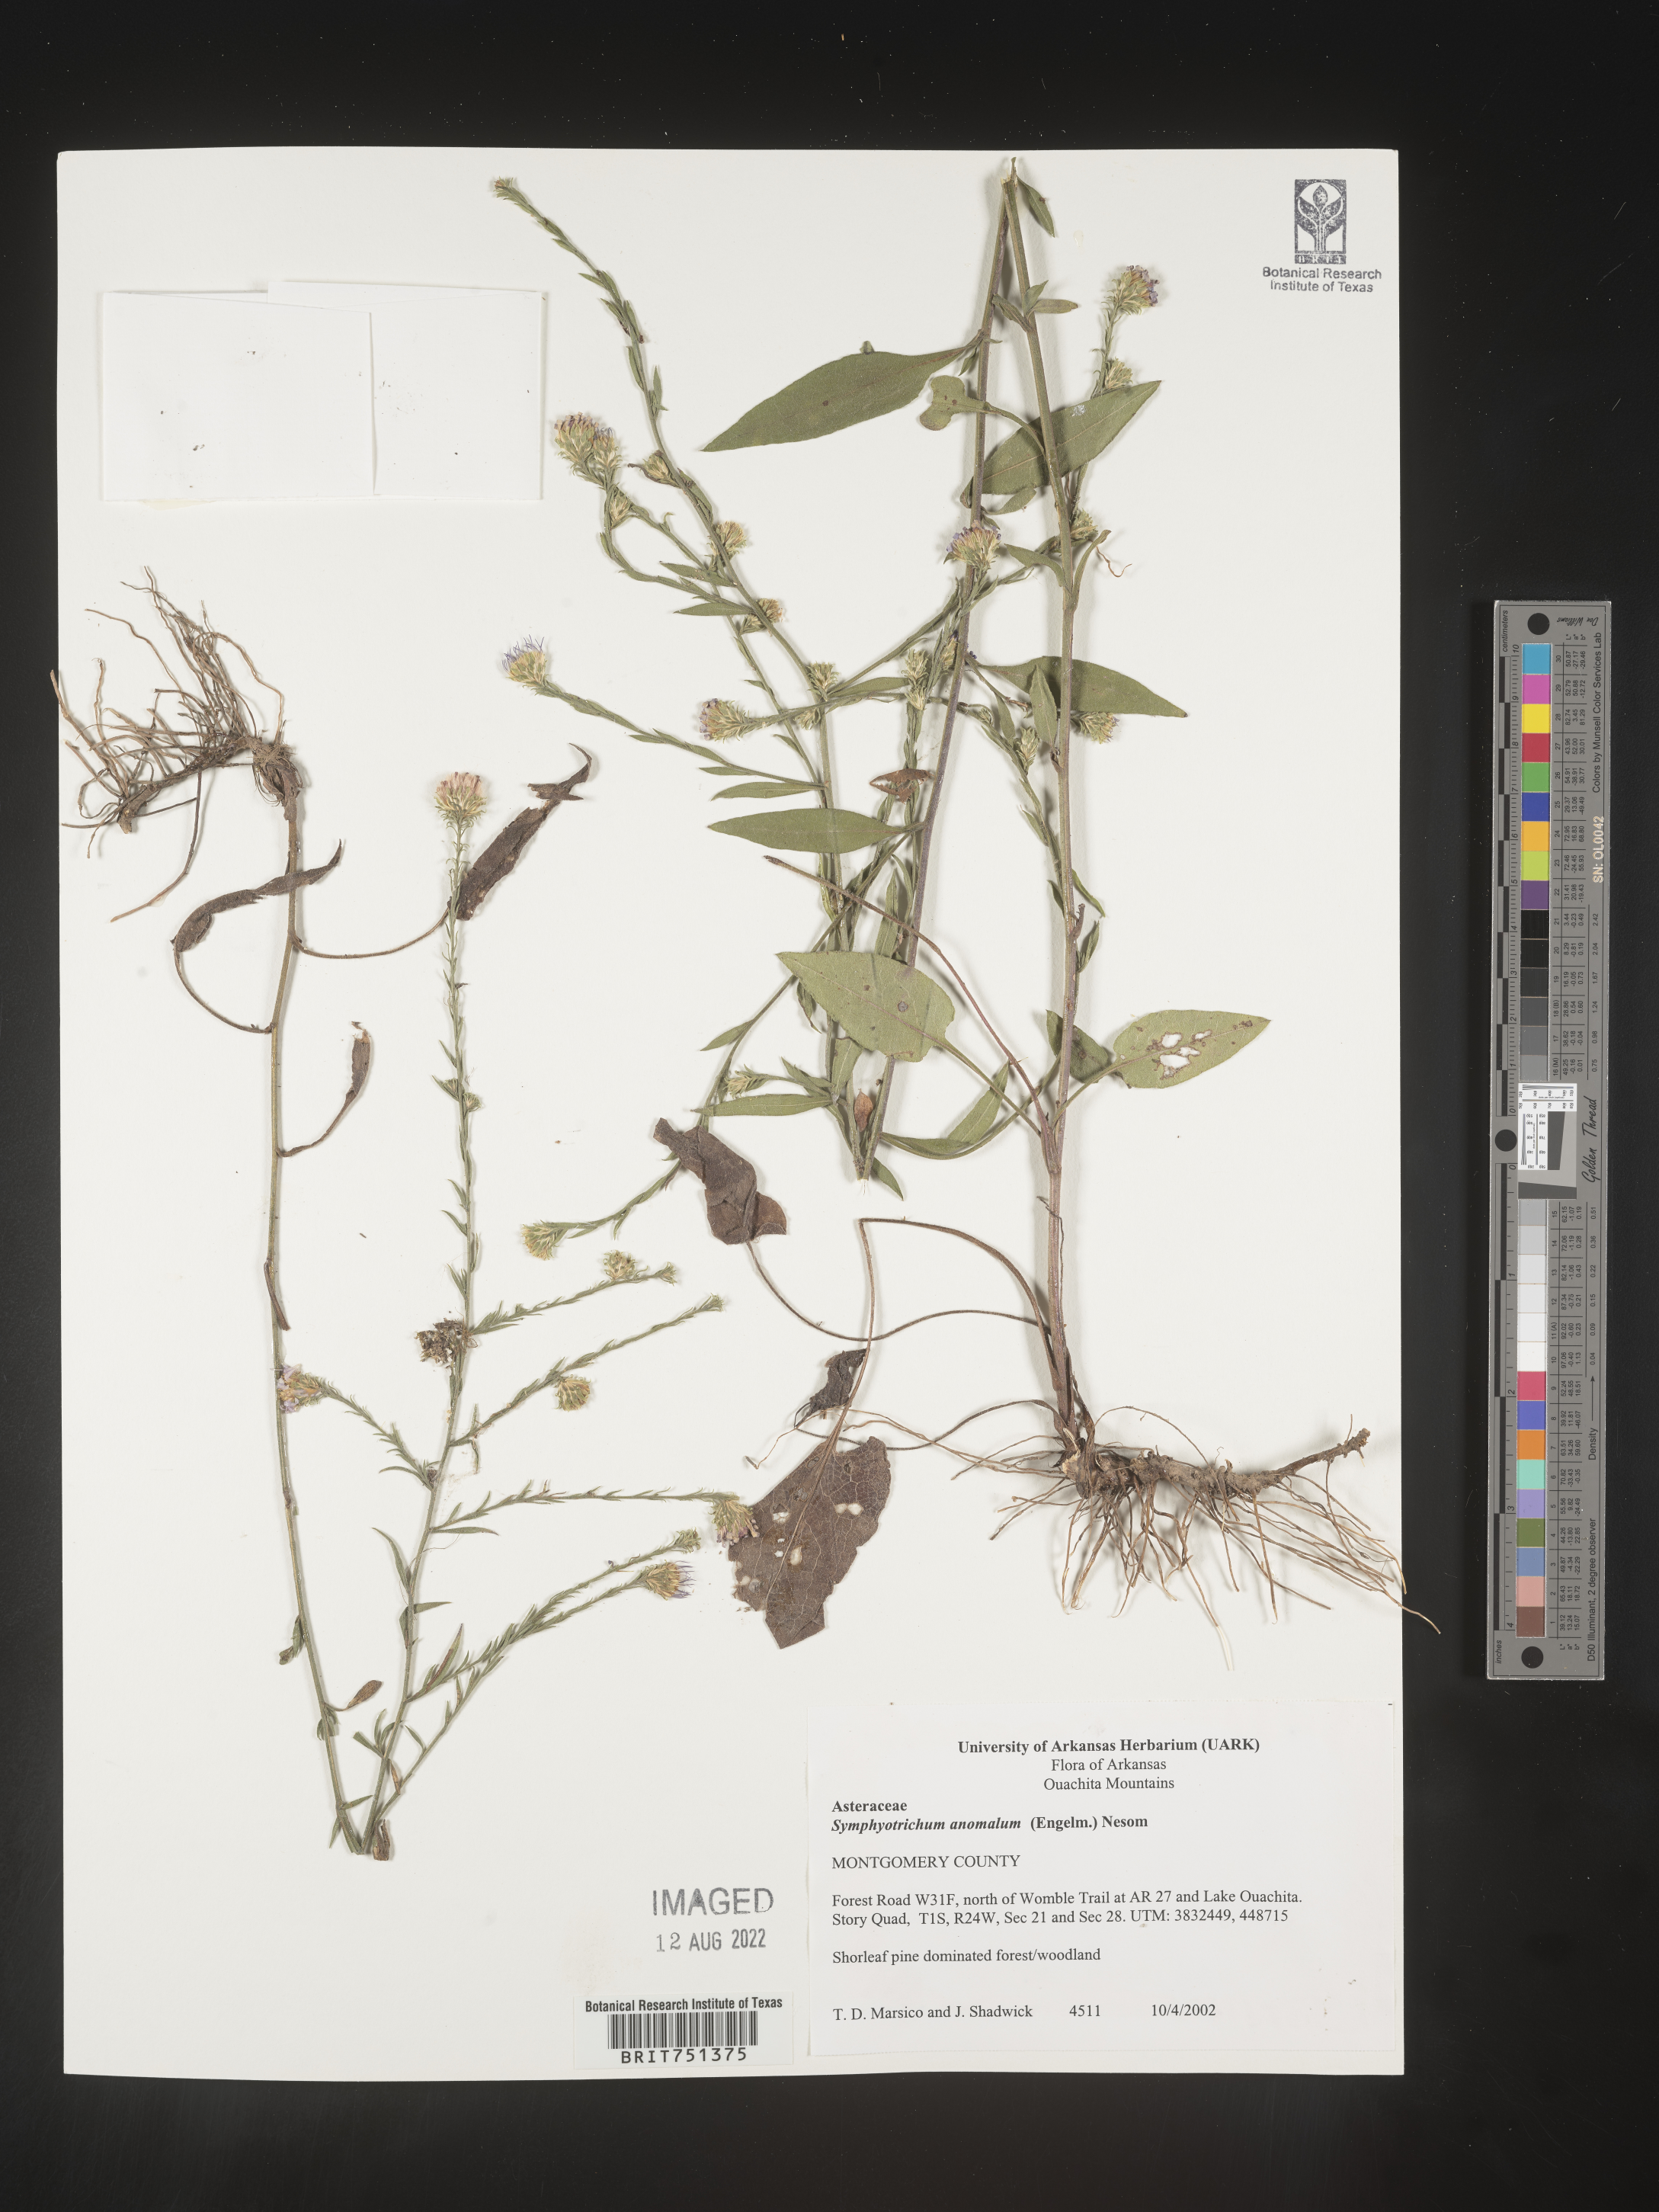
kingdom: Plantae
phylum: Tracheophyta
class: Magnoliopsida
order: Asterales
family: Asteraceae
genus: Symphyotrichum
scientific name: Symphyotrichum anomalum
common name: Many-ray aster
